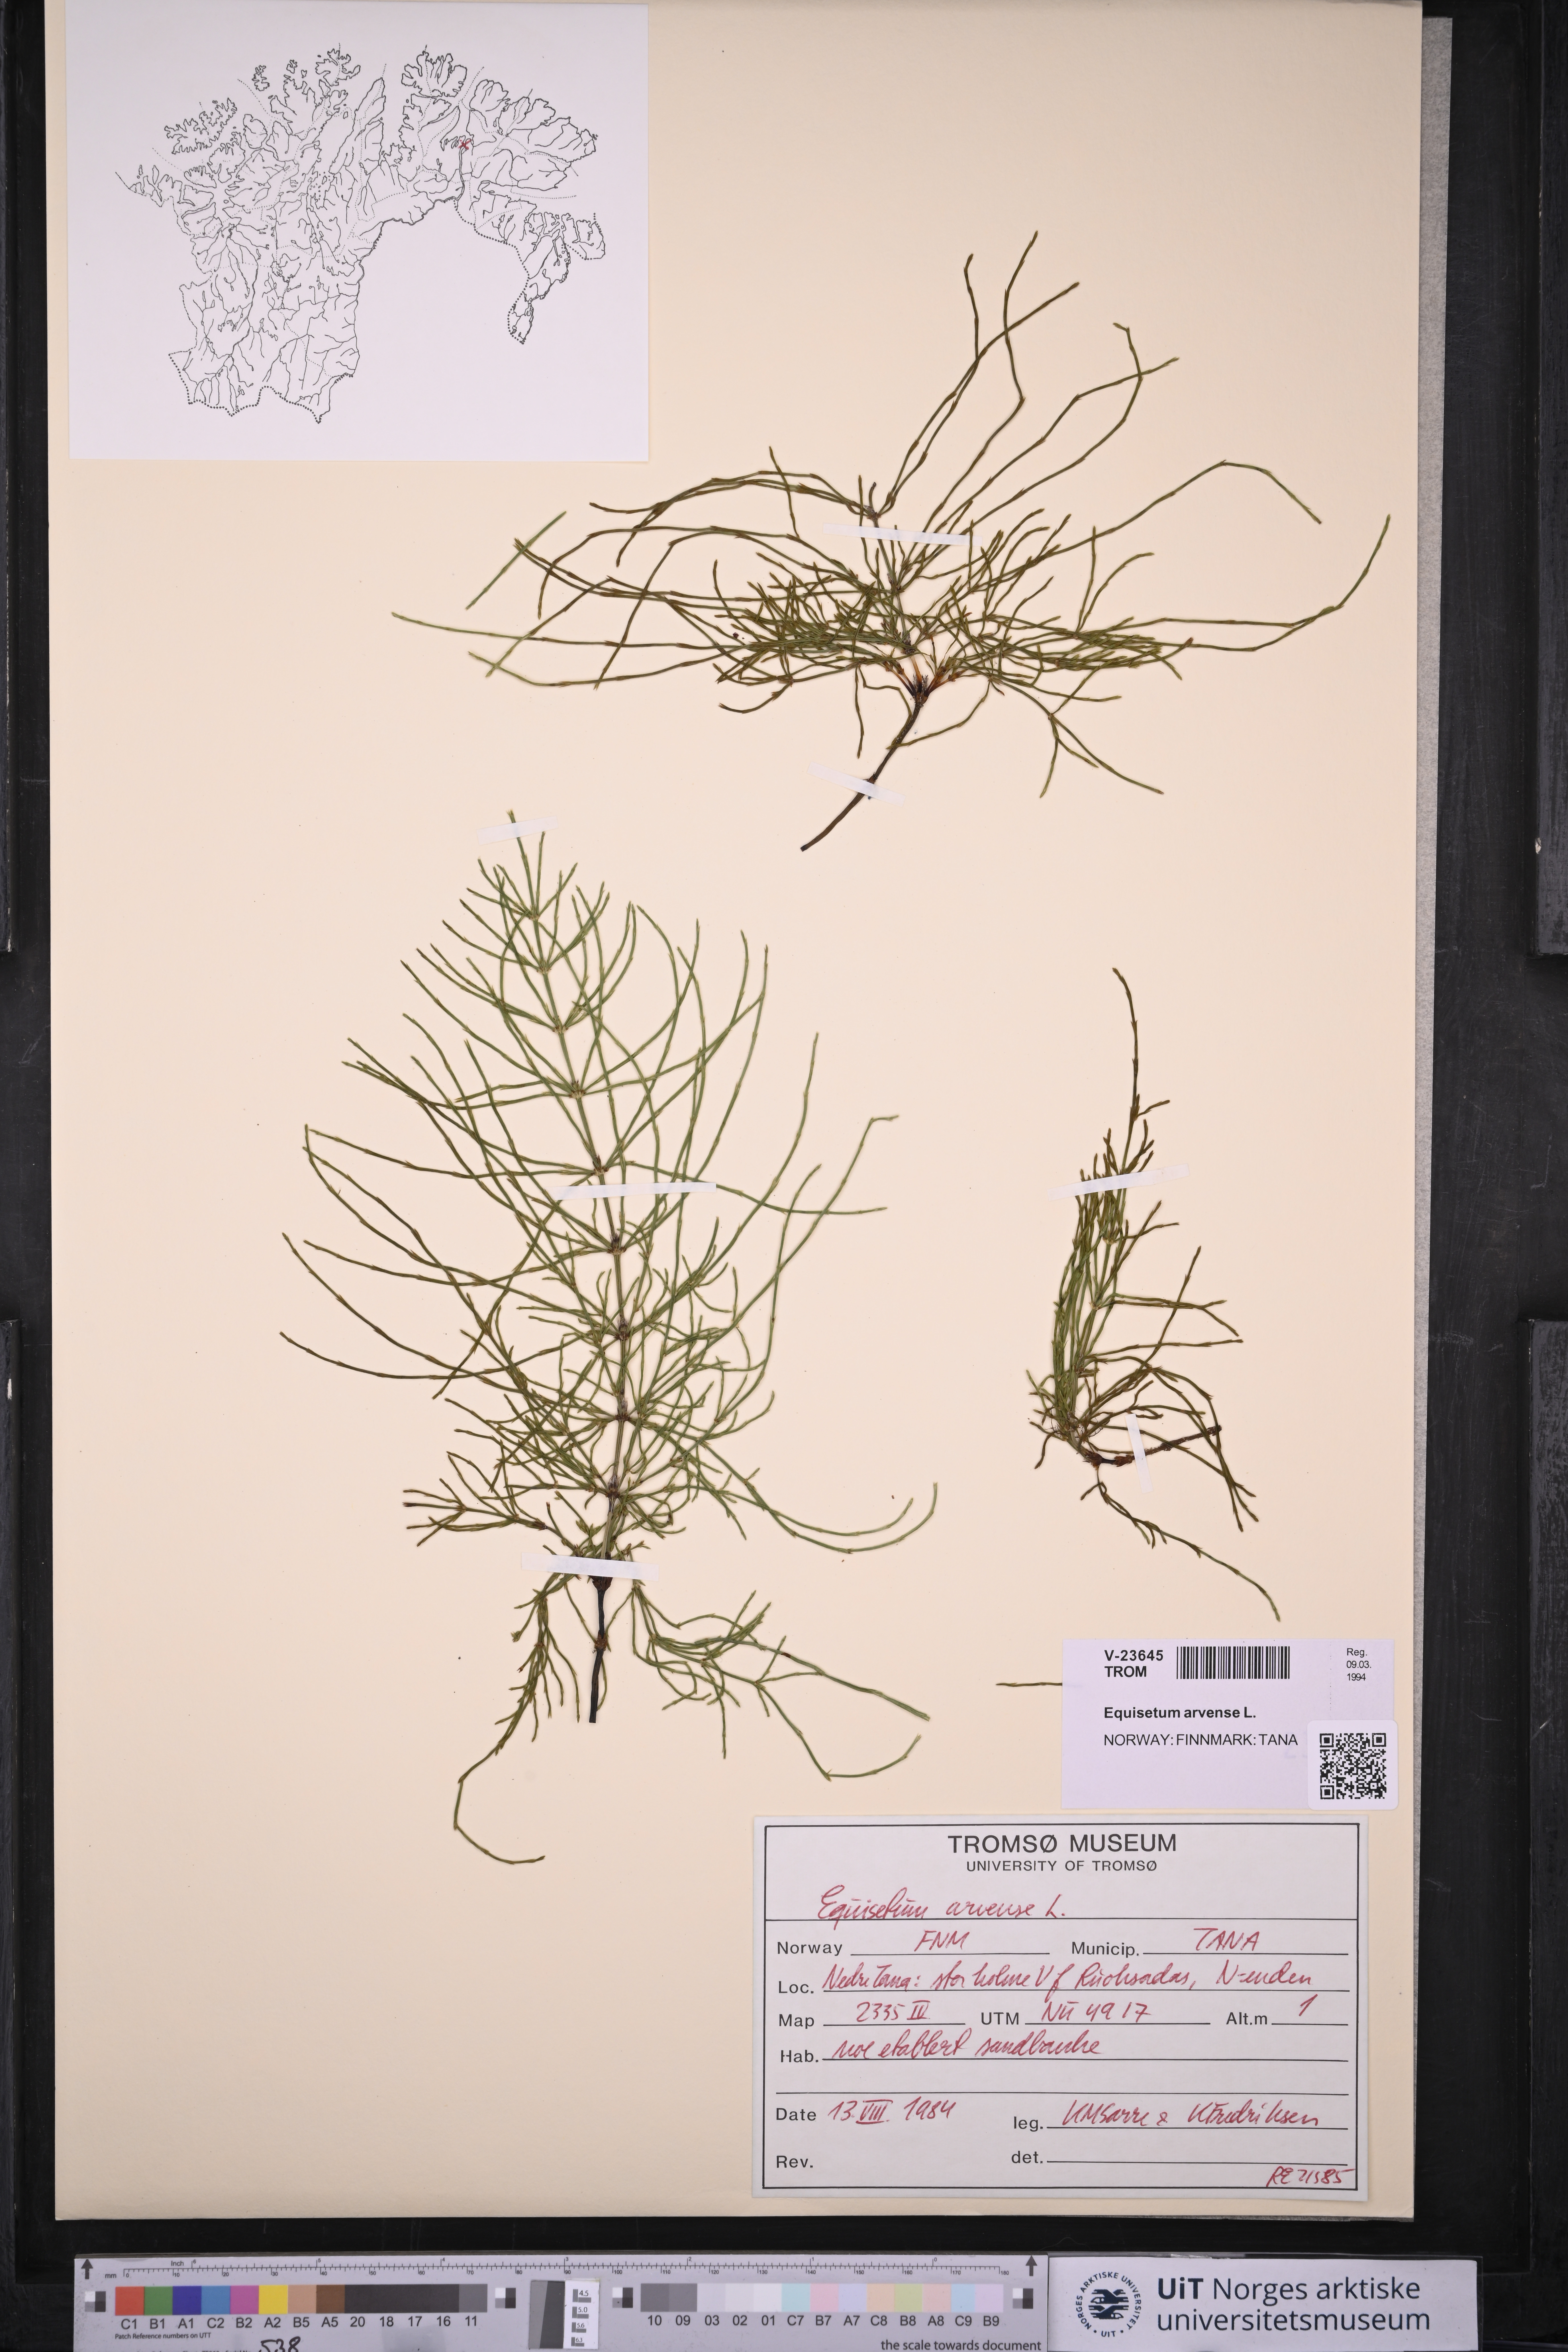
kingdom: Plantae
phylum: Tracheophyta
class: Polypodiopsida
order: Equisetales
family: Equisetaceae
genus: Equisetum
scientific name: Equisetum arvense
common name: Field horsetail
